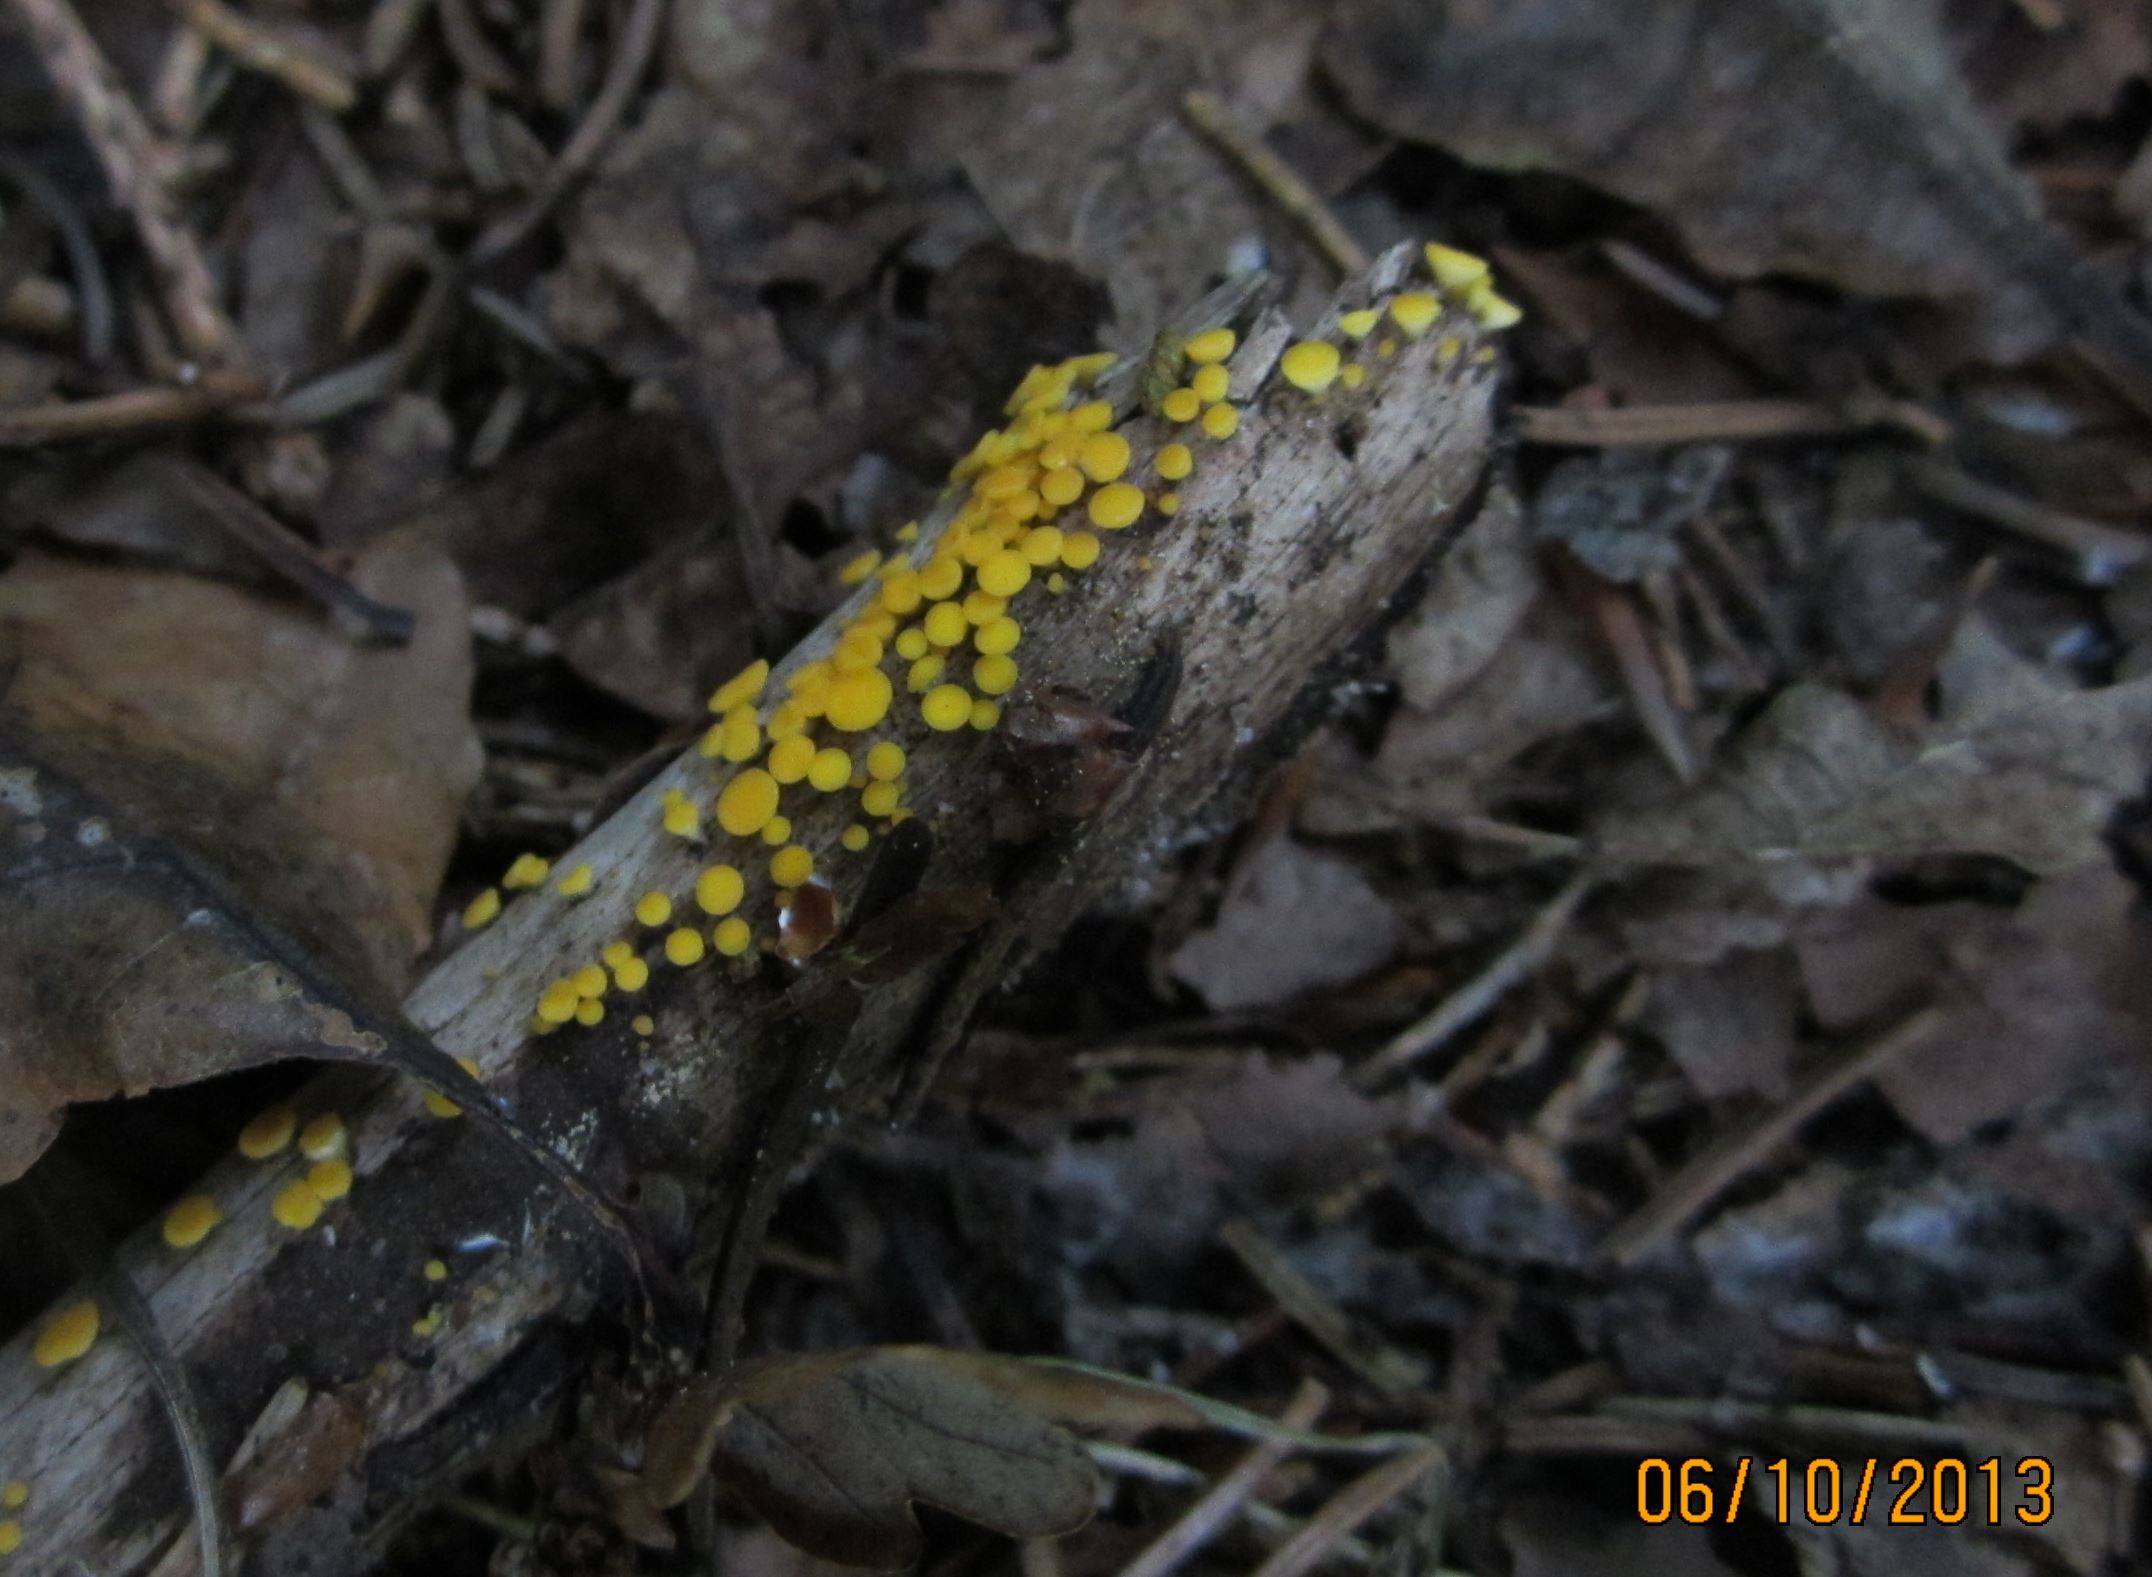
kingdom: Fungi
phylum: Ascomycota
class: Leotiomycetes
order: Helotiales
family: Pezizellaceae
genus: Calycina
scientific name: Calycina citrina
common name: almindelig gulskive
